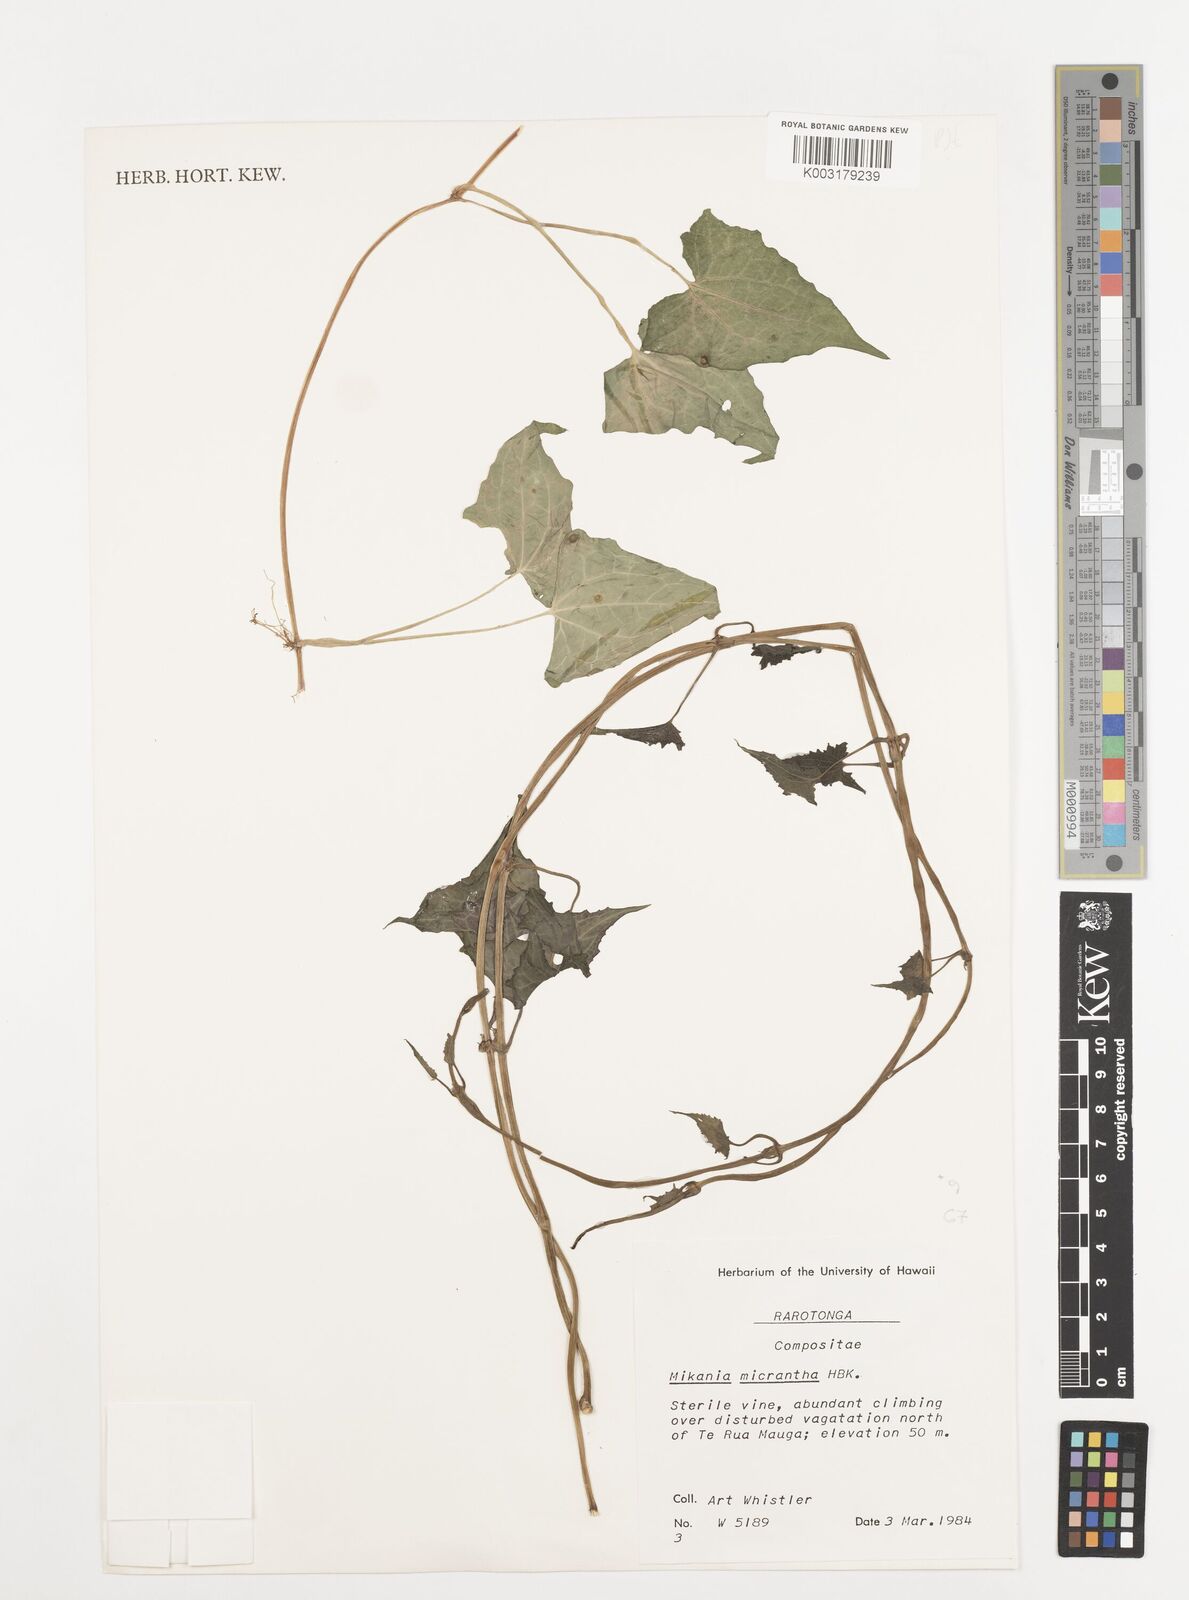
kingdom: Plantae
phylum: Tracheophyta
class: Magnoliopsida
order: Asterales
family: Asteraceae
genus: Mikania
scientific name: Mikania micrantha
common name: Mile-a-minute
